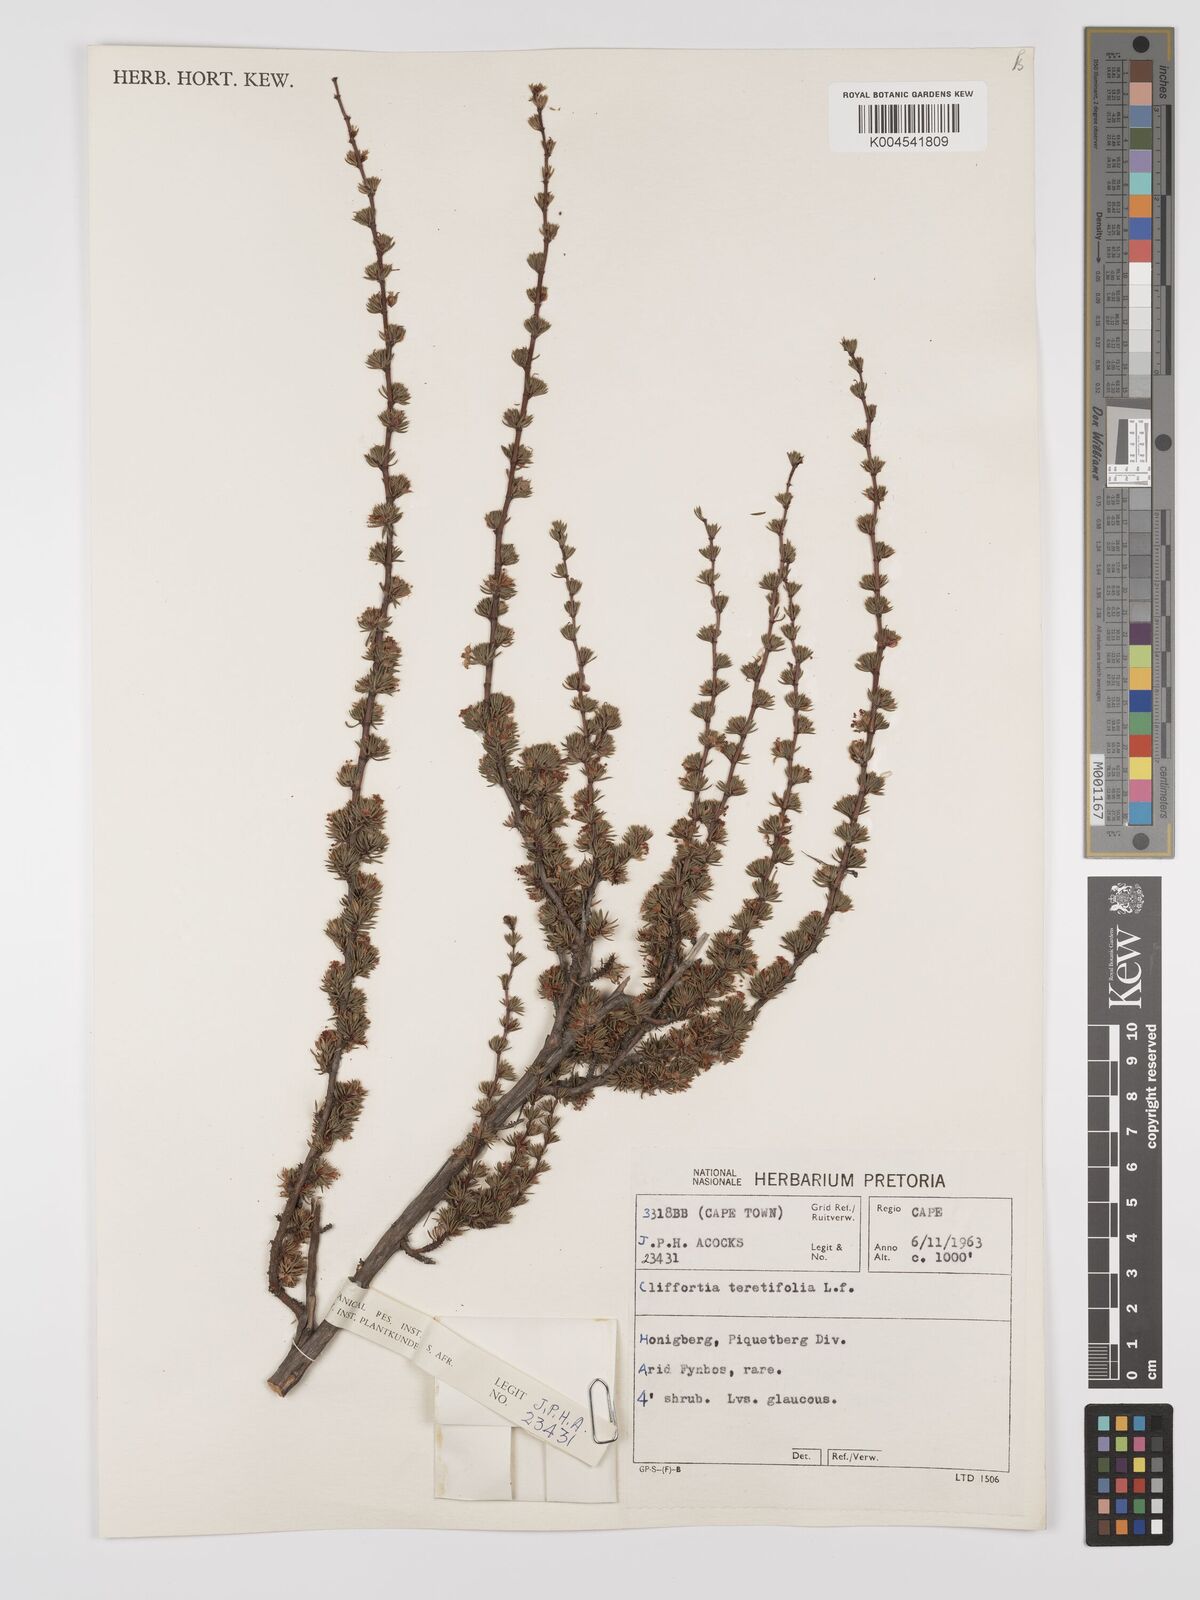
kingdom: Plantae
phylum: Tracheophyta
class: Magnoliopsida
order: Rosales
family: Rosaceae
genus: Cliffortia
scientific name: Cliffortia teretifolia
